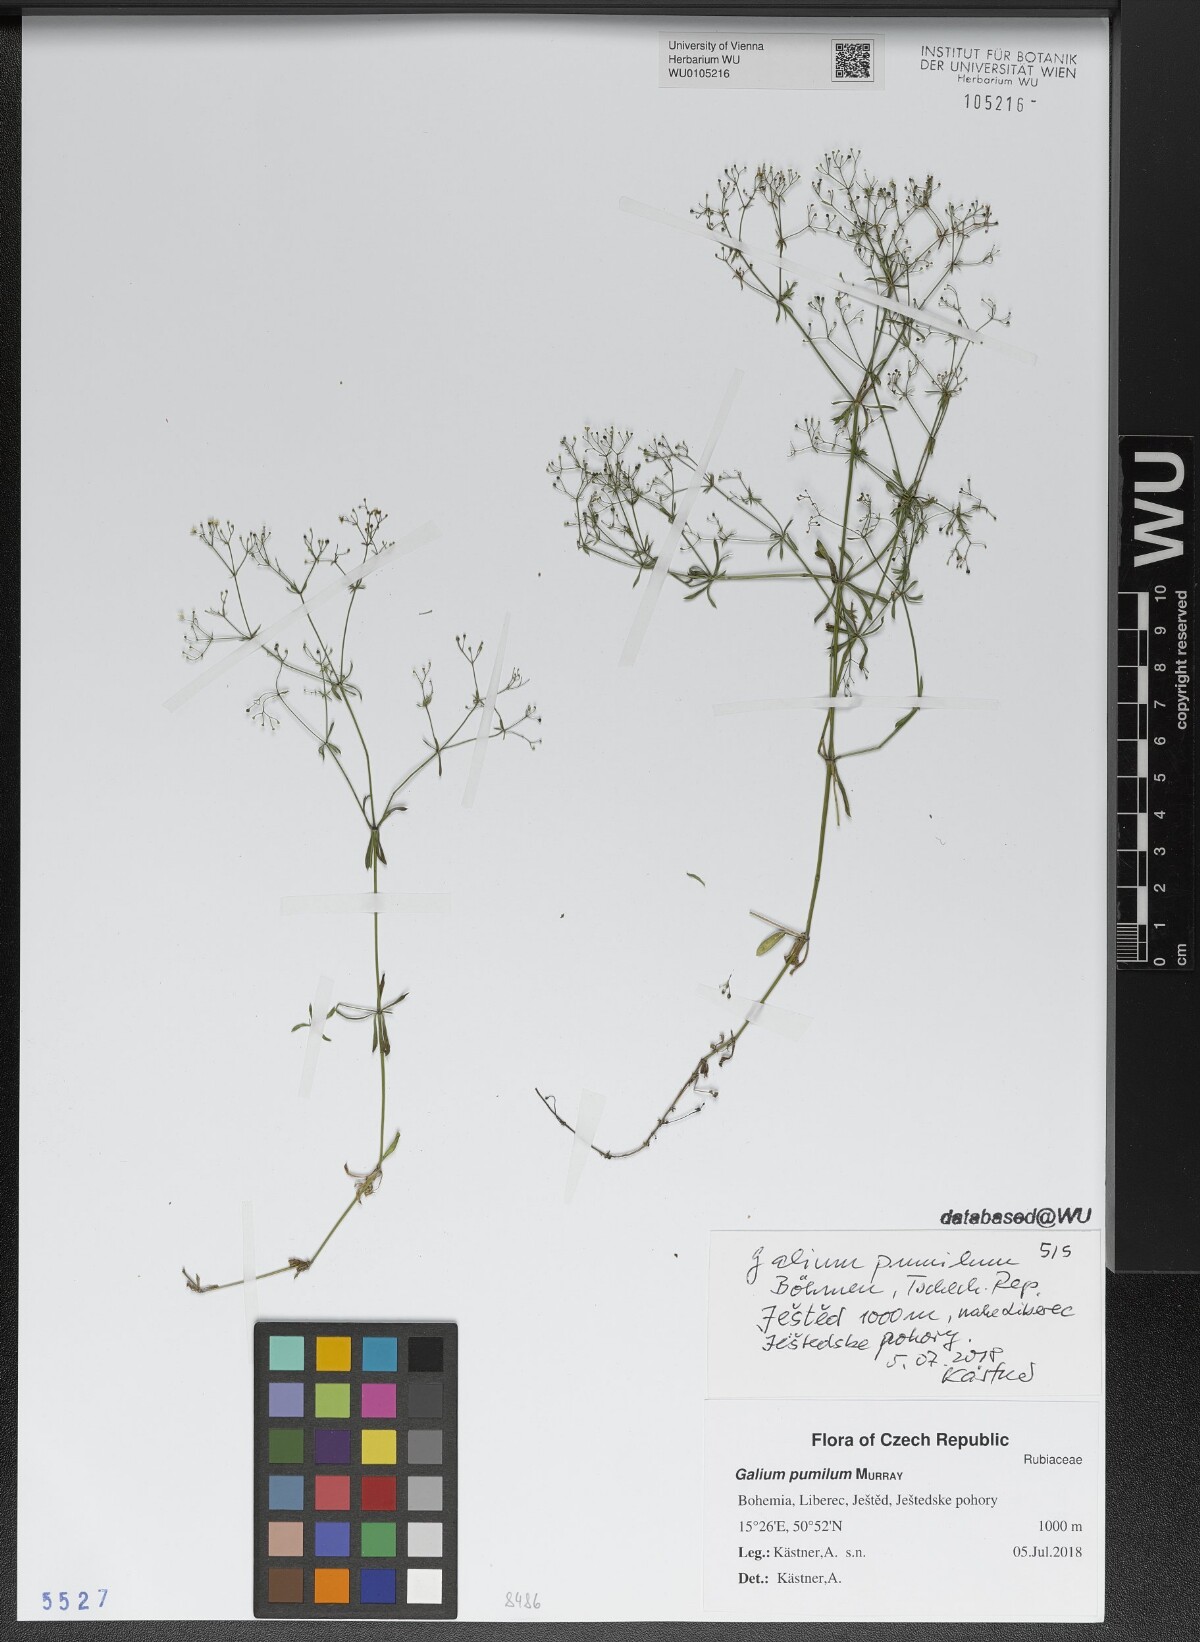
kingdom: Plantae
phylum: Tracheophyta
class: Magnoliopsida
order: Gentianales
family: Rubiaceae
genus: Galium
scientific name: Galium pumilum
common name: Slender bedstraw
